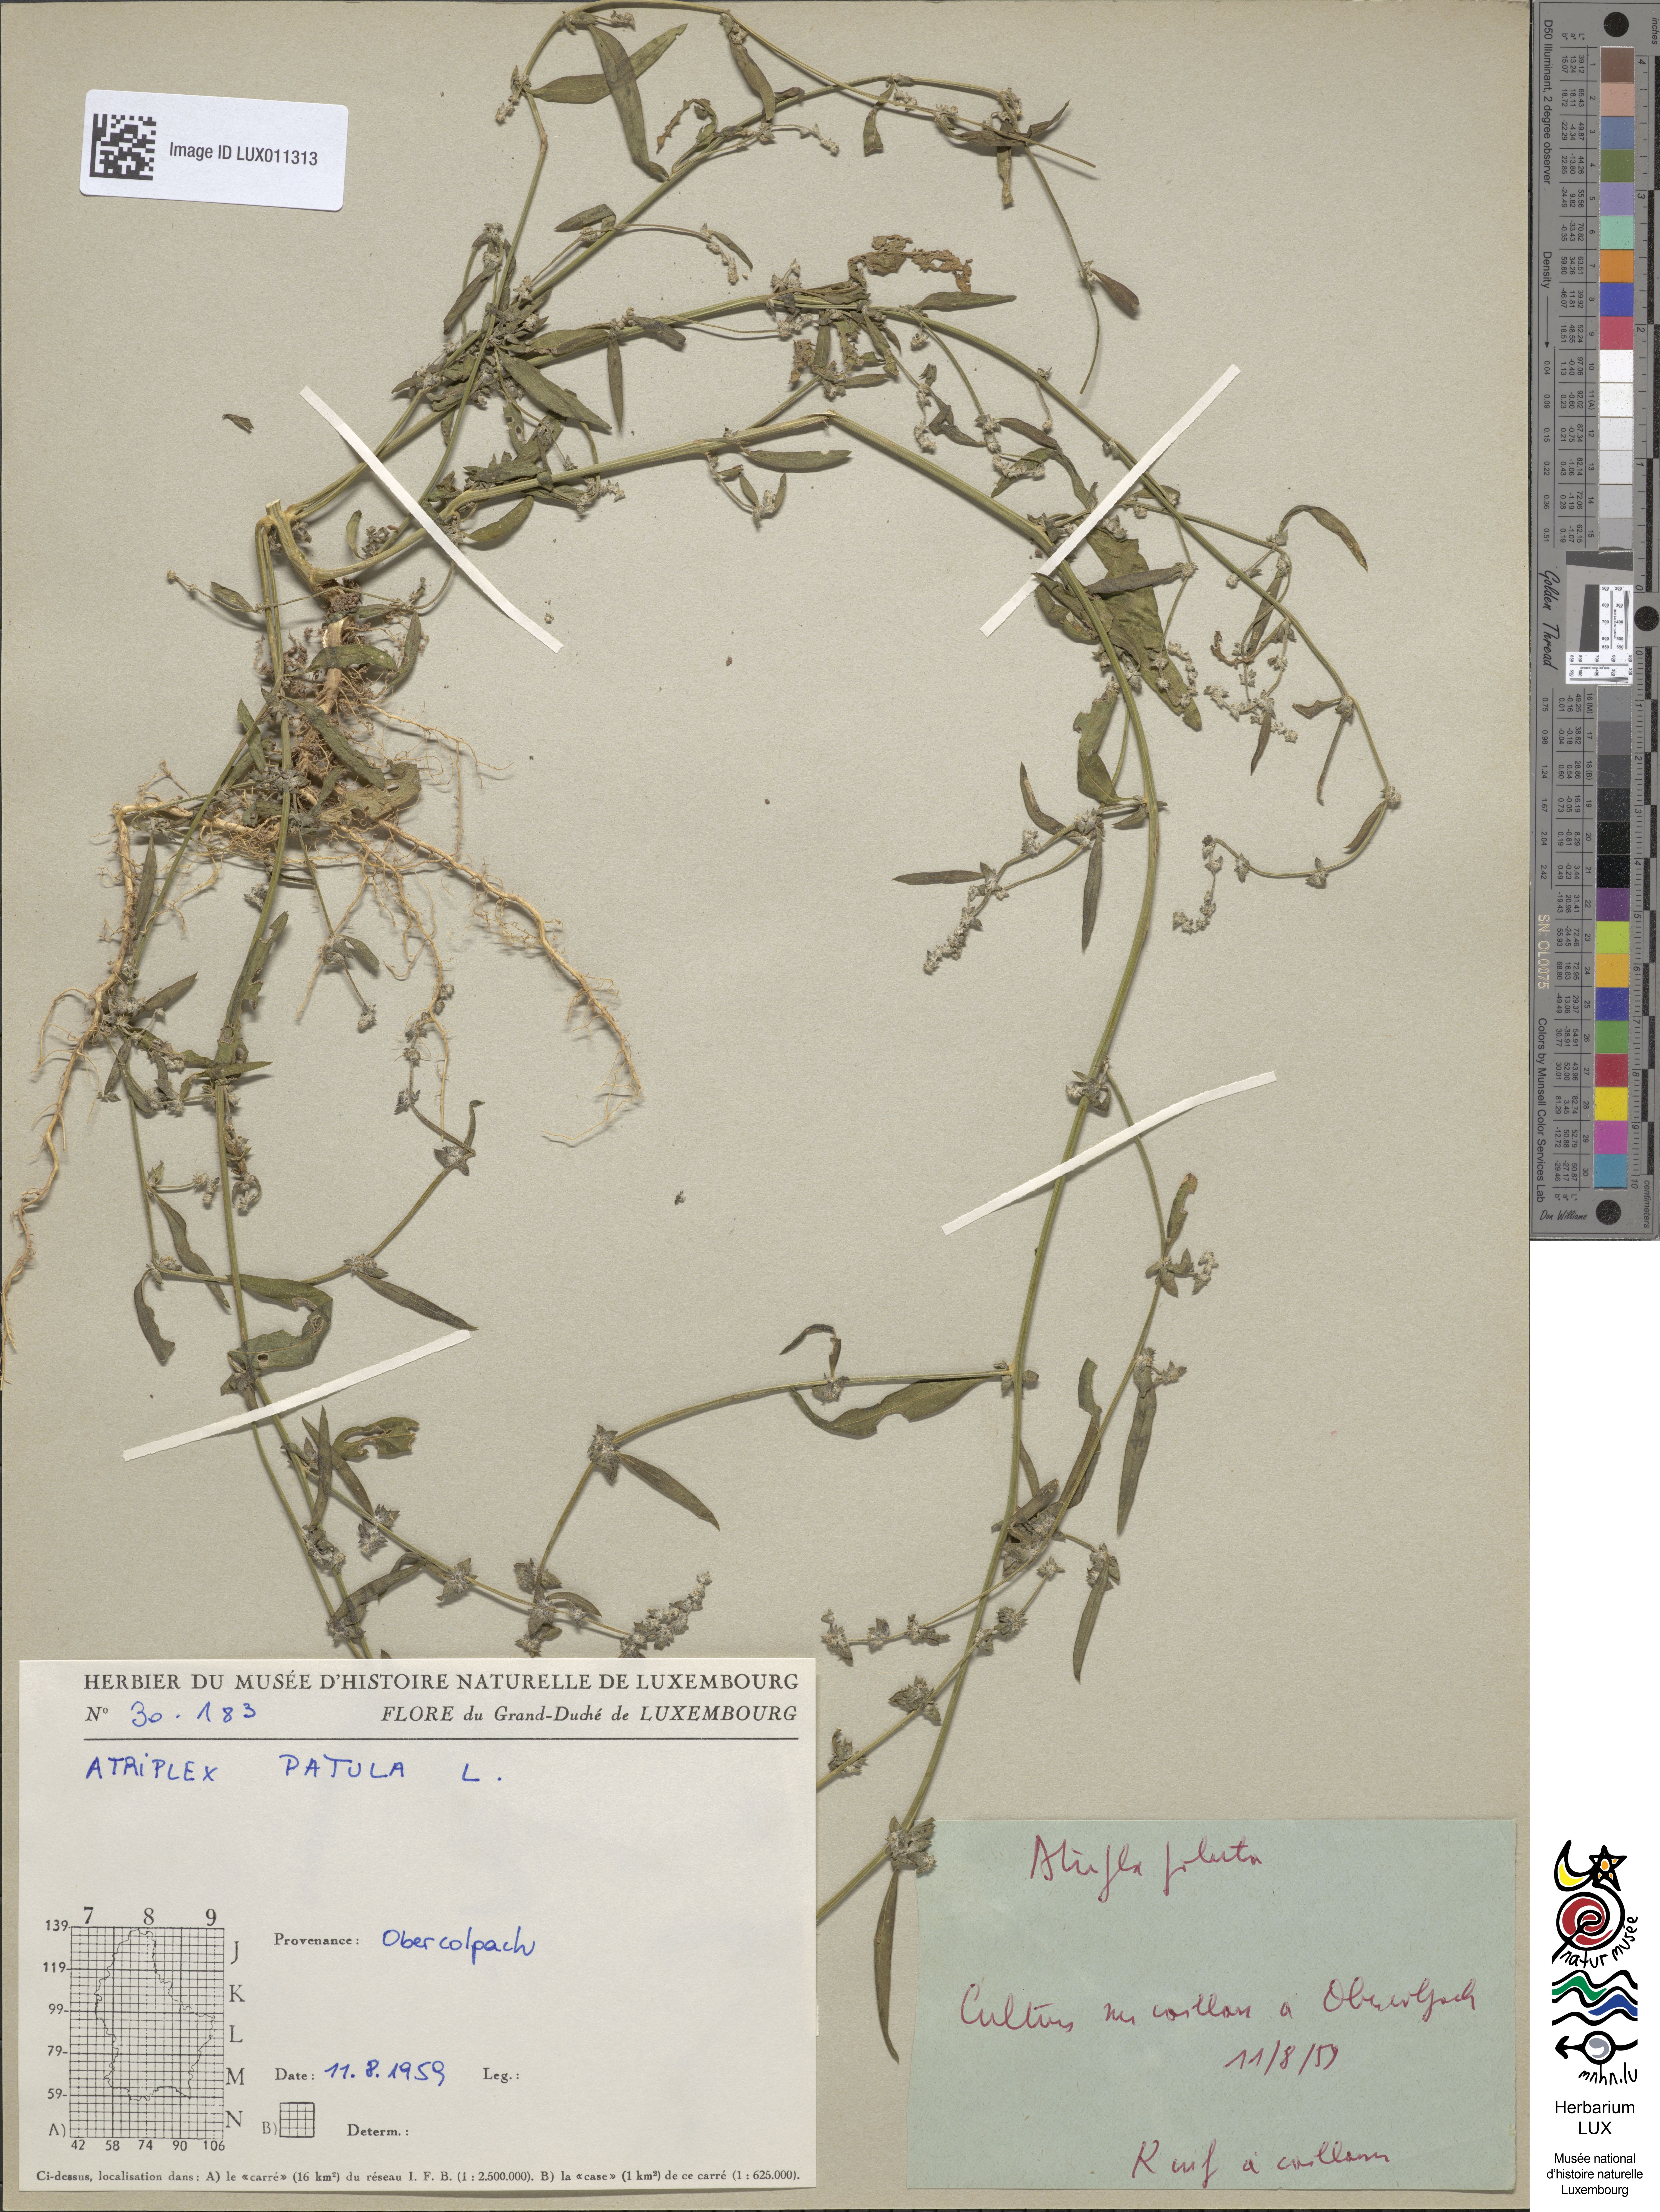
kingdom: Plantae
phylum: Tracheophyta
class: Magnoliopsida
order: Caryophyllales
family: Amaranthaceae
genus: Atriplex
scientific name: Atriplex patula
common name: Common orache
